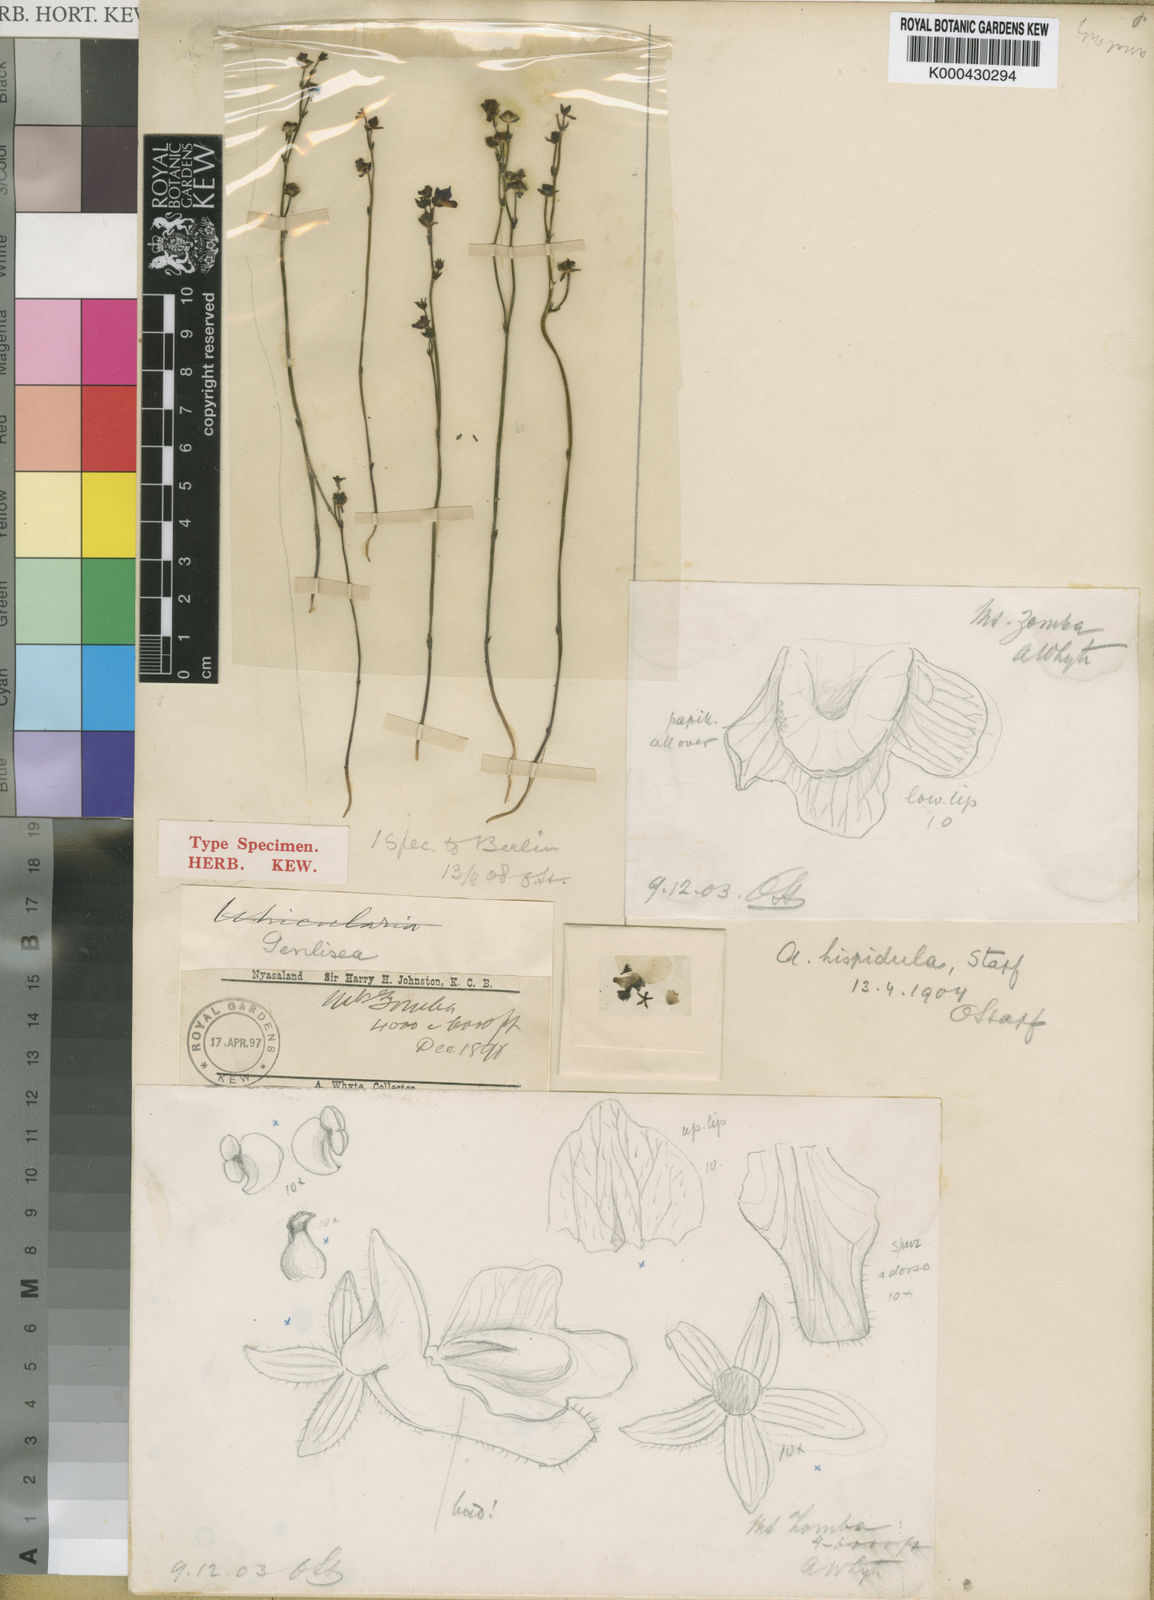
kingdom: Plantae
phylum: Tracheophyta
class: Magnoliopsida
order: Lamiales
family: Lentibulariaceae
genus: Genlisea
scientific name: Genlisea hispidula
